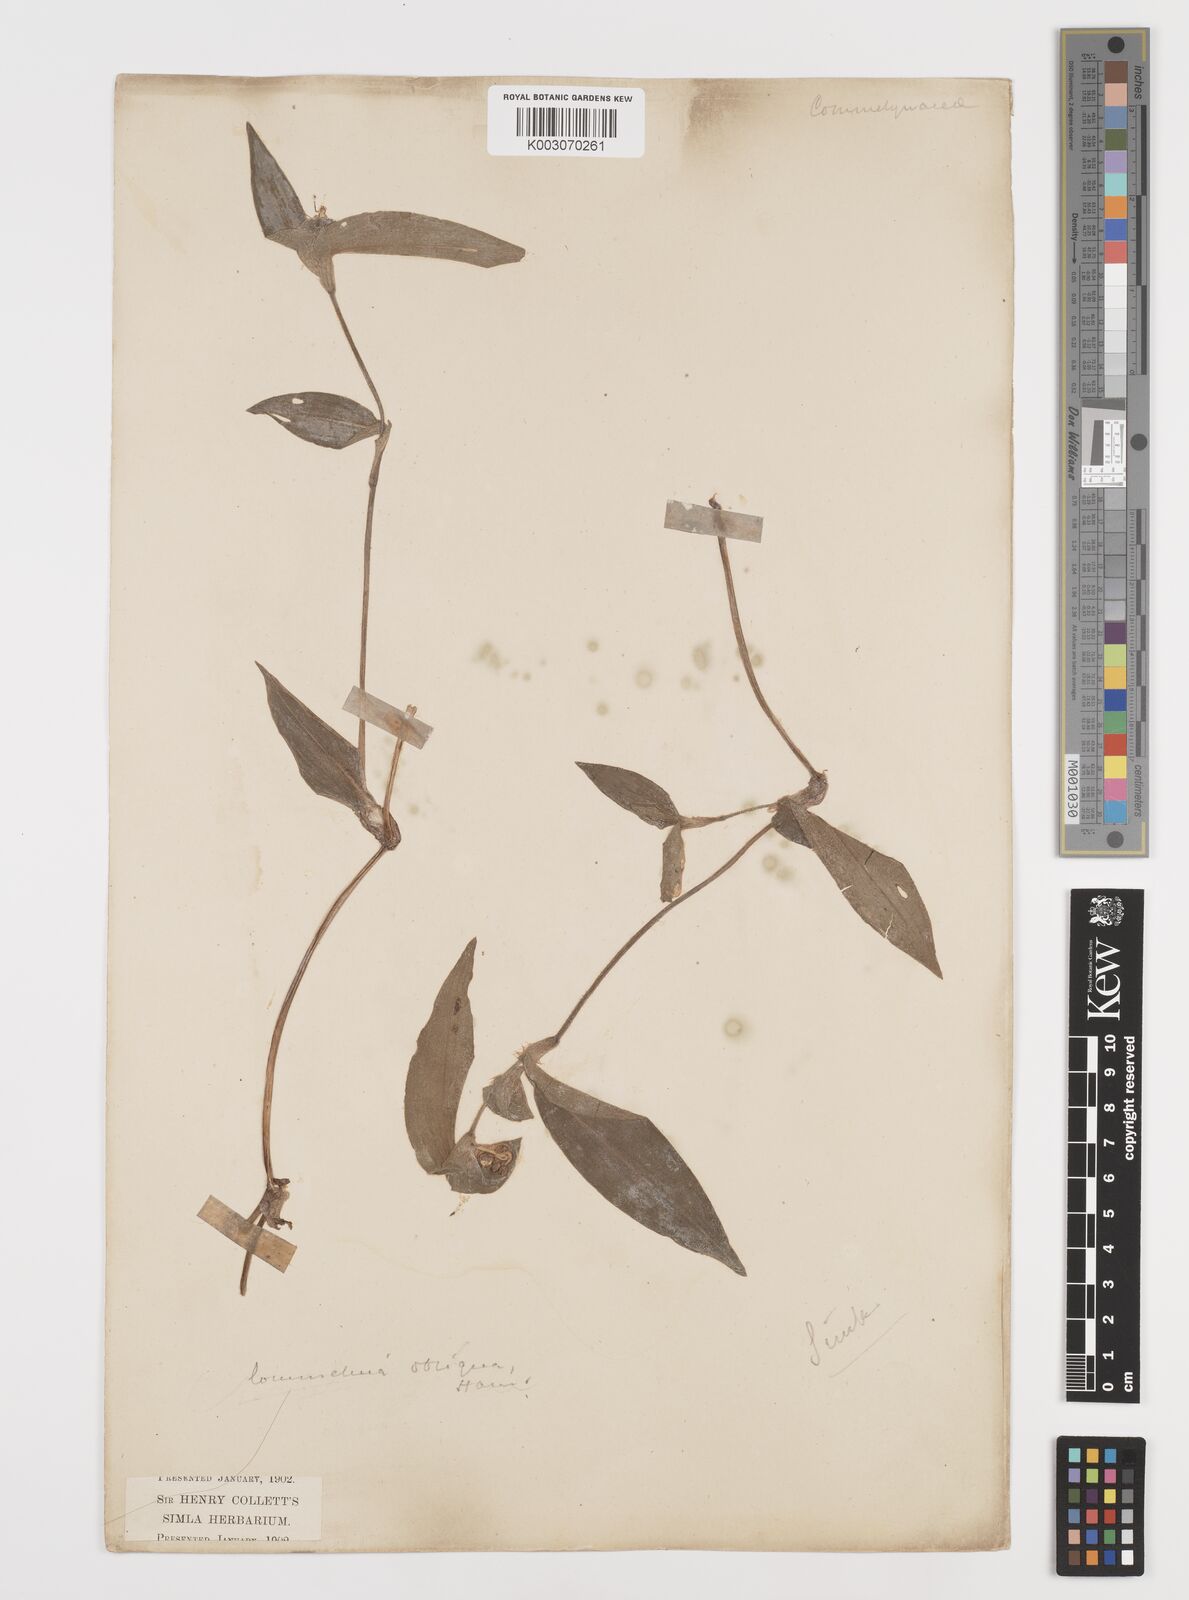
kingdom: Plantae
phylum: Tracheophyta
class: Liliopsida
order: Commelinales
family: Commelinaceae
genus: Commelina
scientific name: Commelina paludosa
